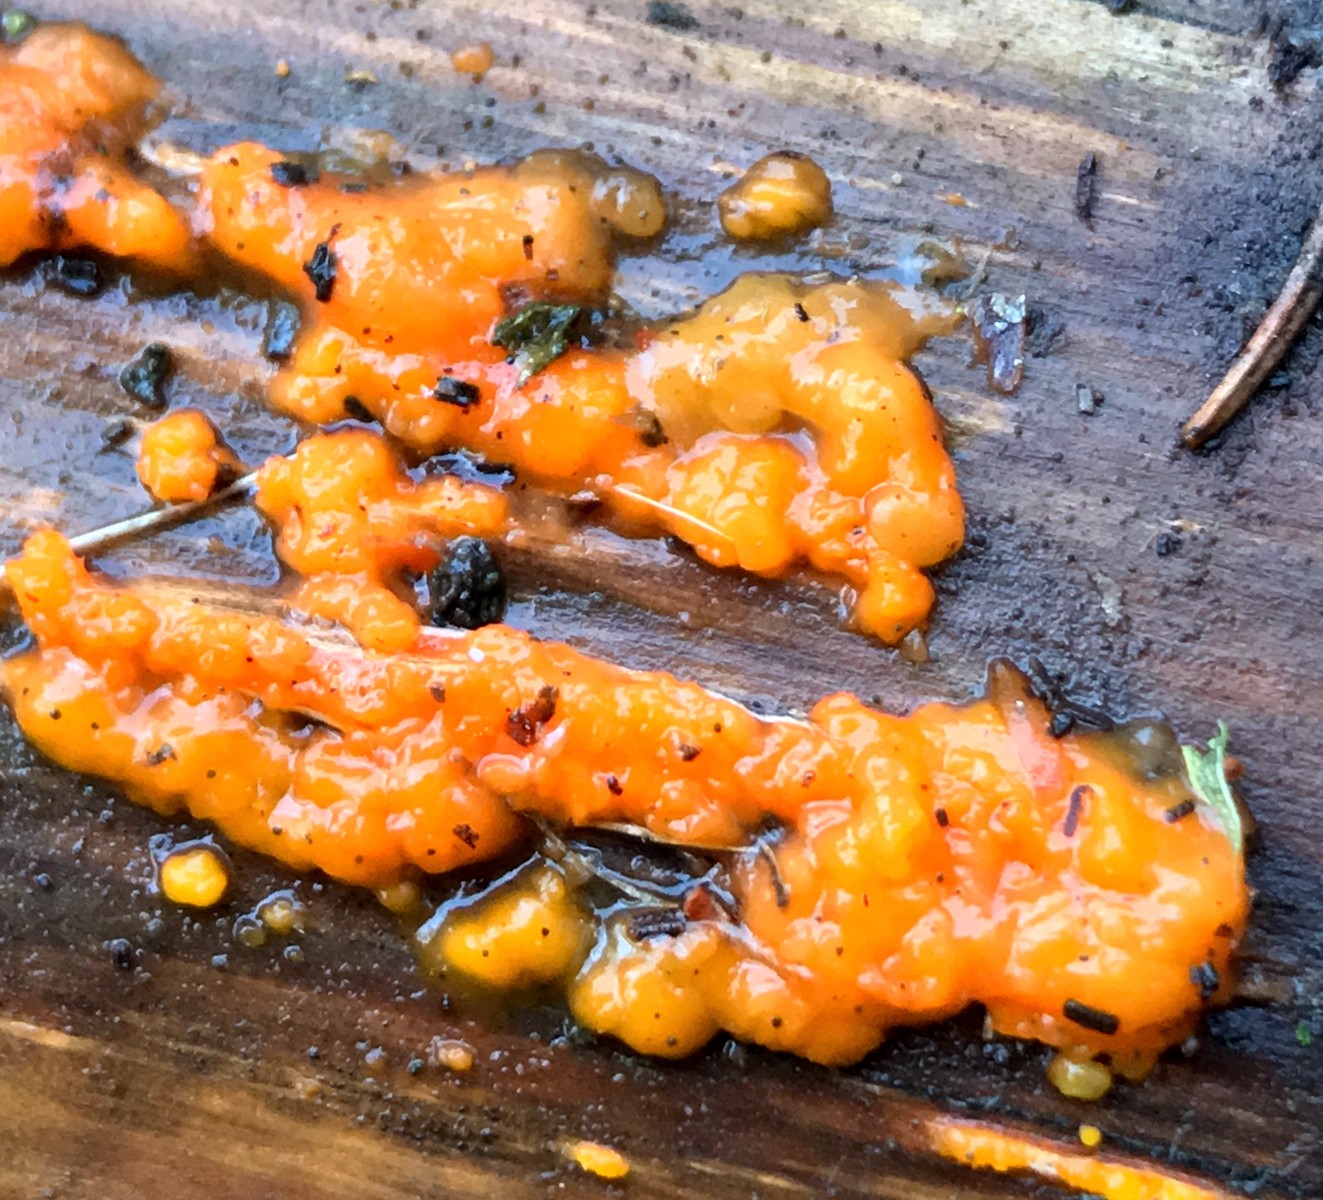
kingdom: Fungi
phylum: Basidiomycota
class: Dacrymycetes
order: Dacrymycetales
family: Dacrymycetaceae
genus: Dacrymyces
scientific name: Dacrymyces stillatus
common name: almindelig tåresvamp
